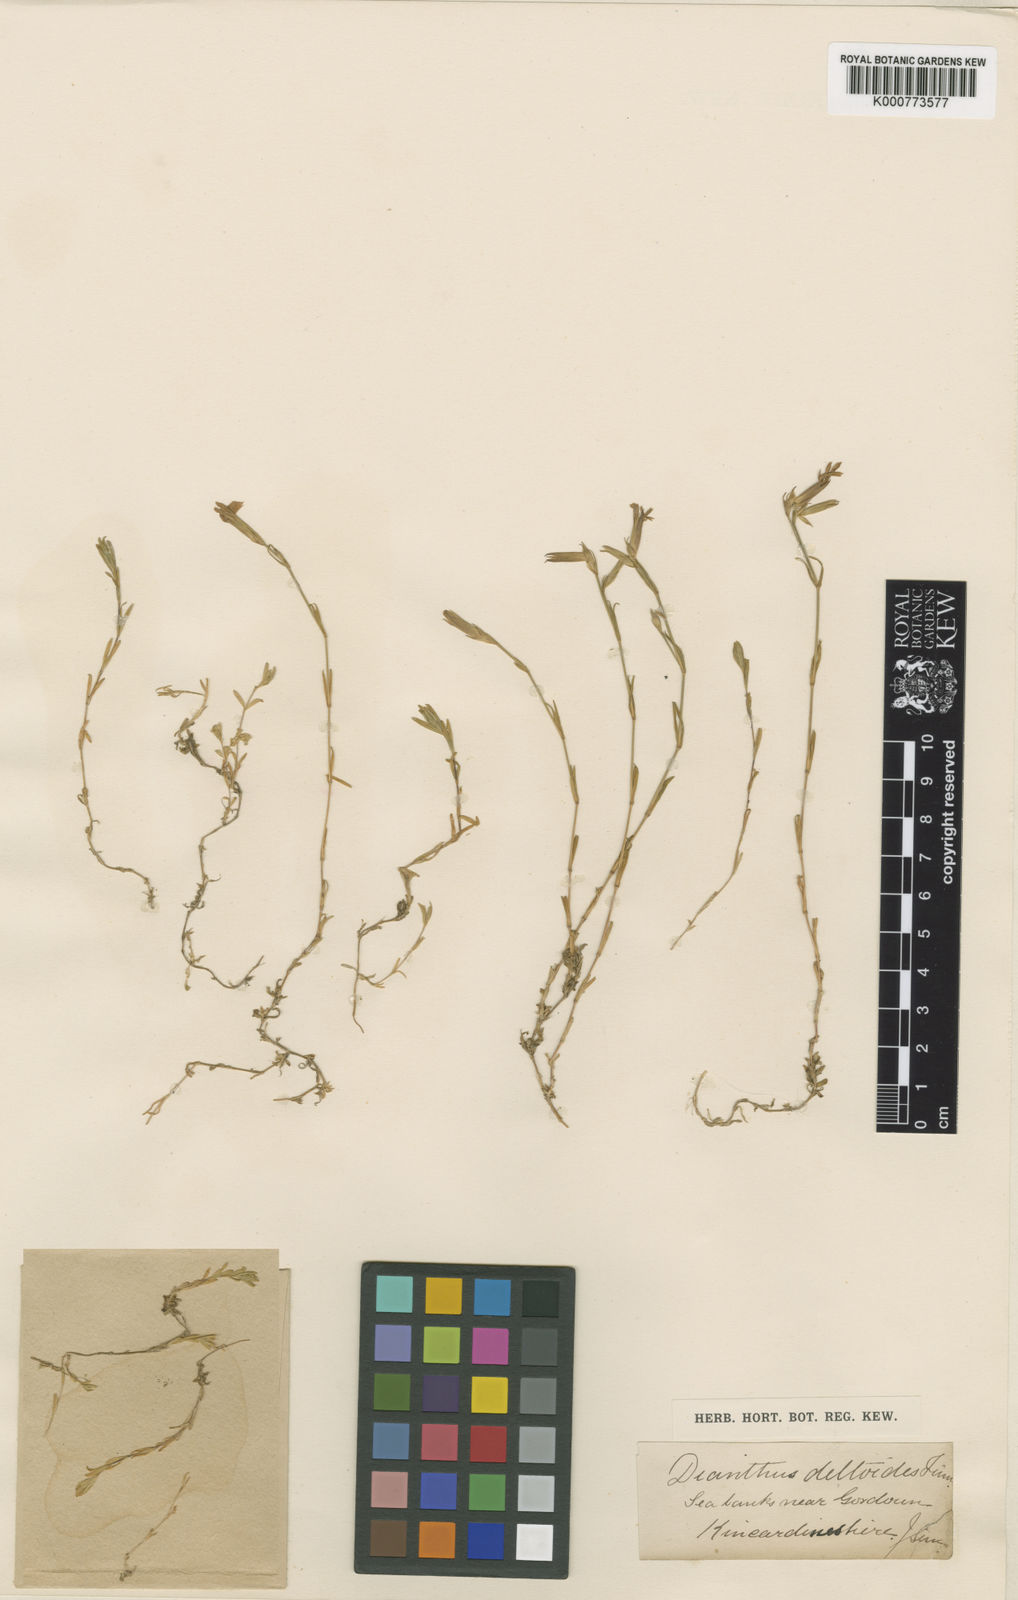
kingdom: Plantae
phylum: Tracheophyta
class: Magnoliopsida
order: Caryophyllales
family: Caryophyllaceae
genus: Dianthus
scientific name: Dianthus deltoides
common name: Maiden pink
